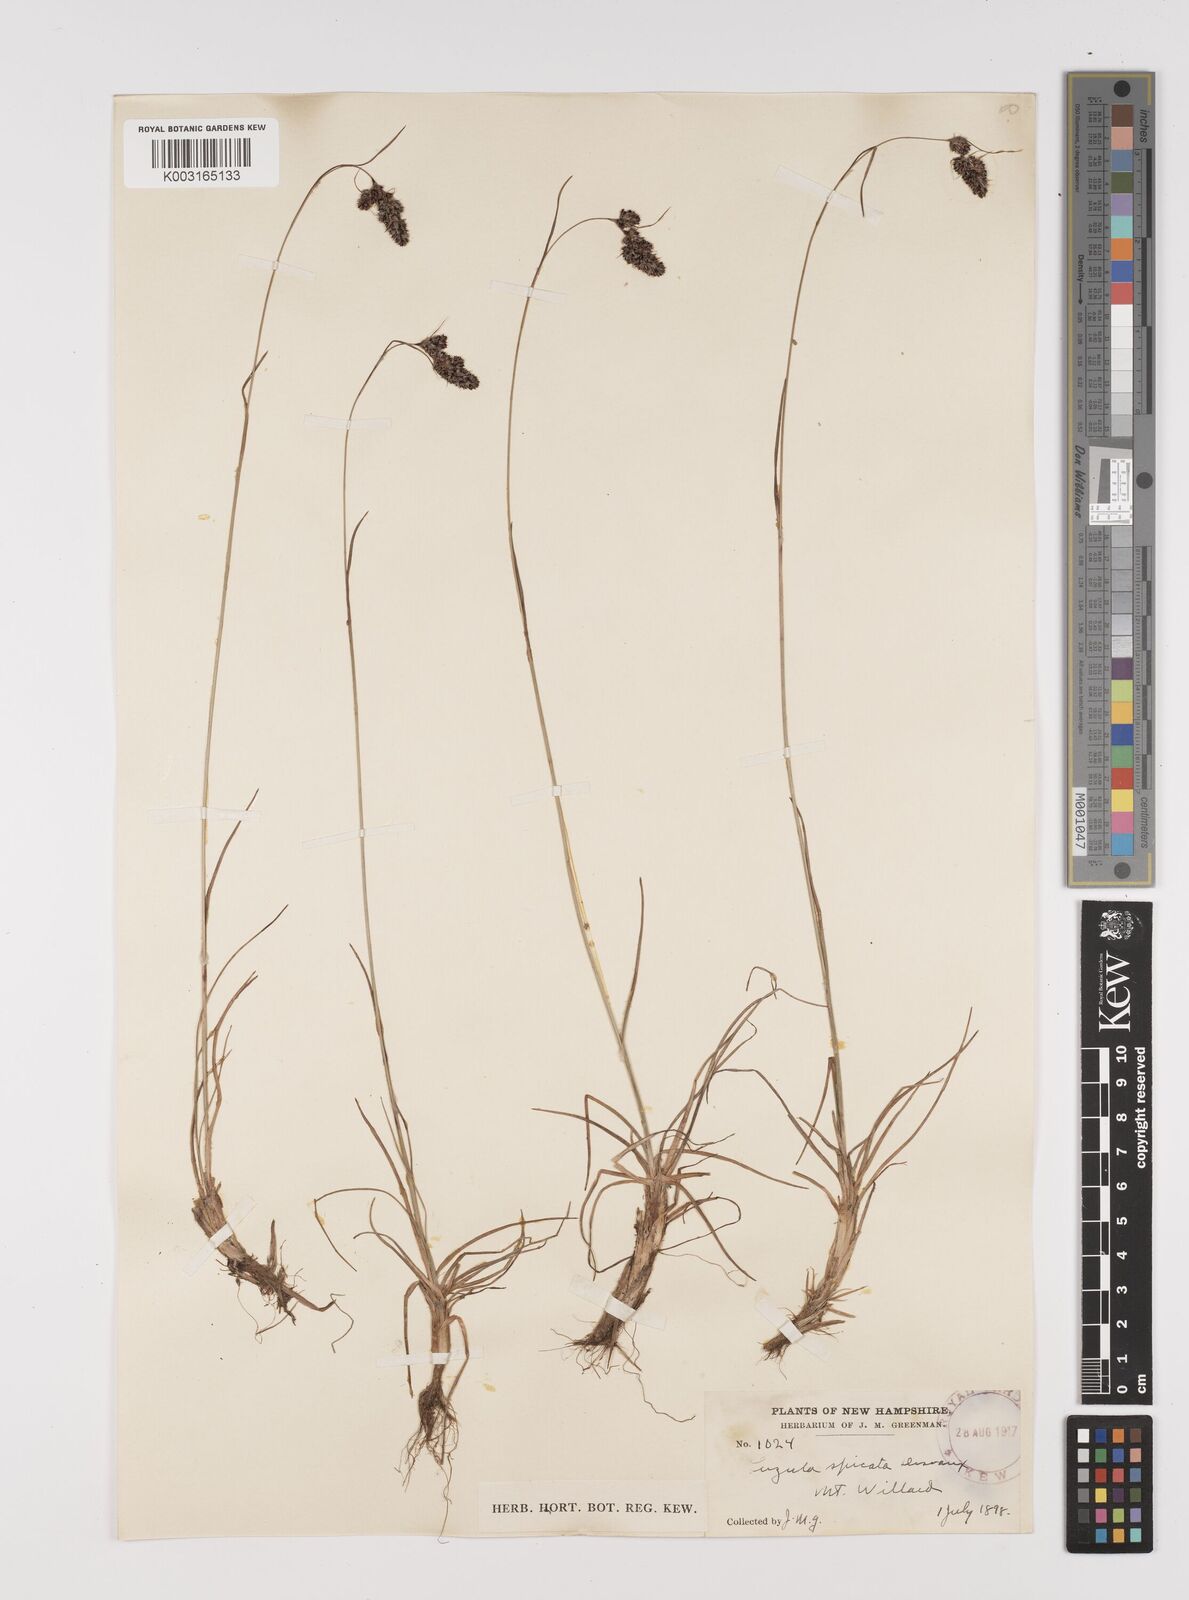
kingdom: Plantae
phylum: Tracheophyta
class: Liliopsida
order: Poales
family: Juncaceae
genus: Luzula
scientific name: Luzula spicata
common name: Spiked wood-rush
